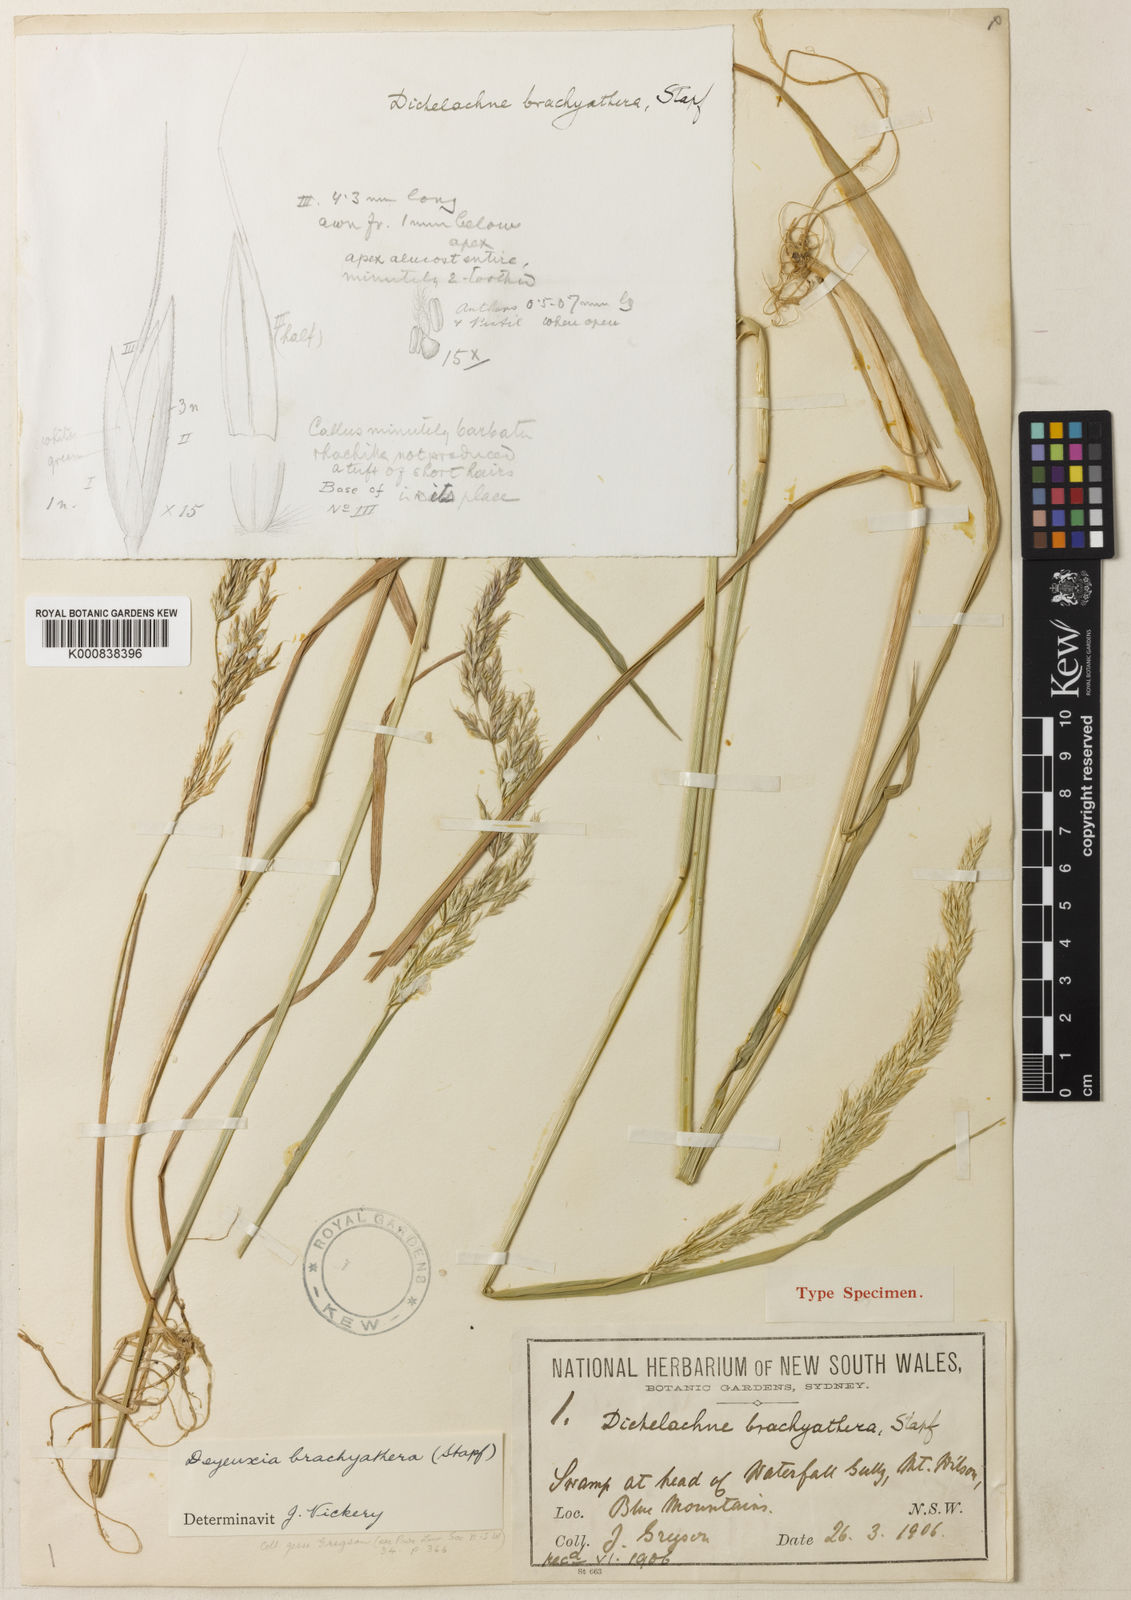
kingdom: Plantae
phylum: Tracheophyta
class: Liliopsida
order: Poales
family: Poaceae
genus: Calamagrostis
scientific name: Calamagrostis
